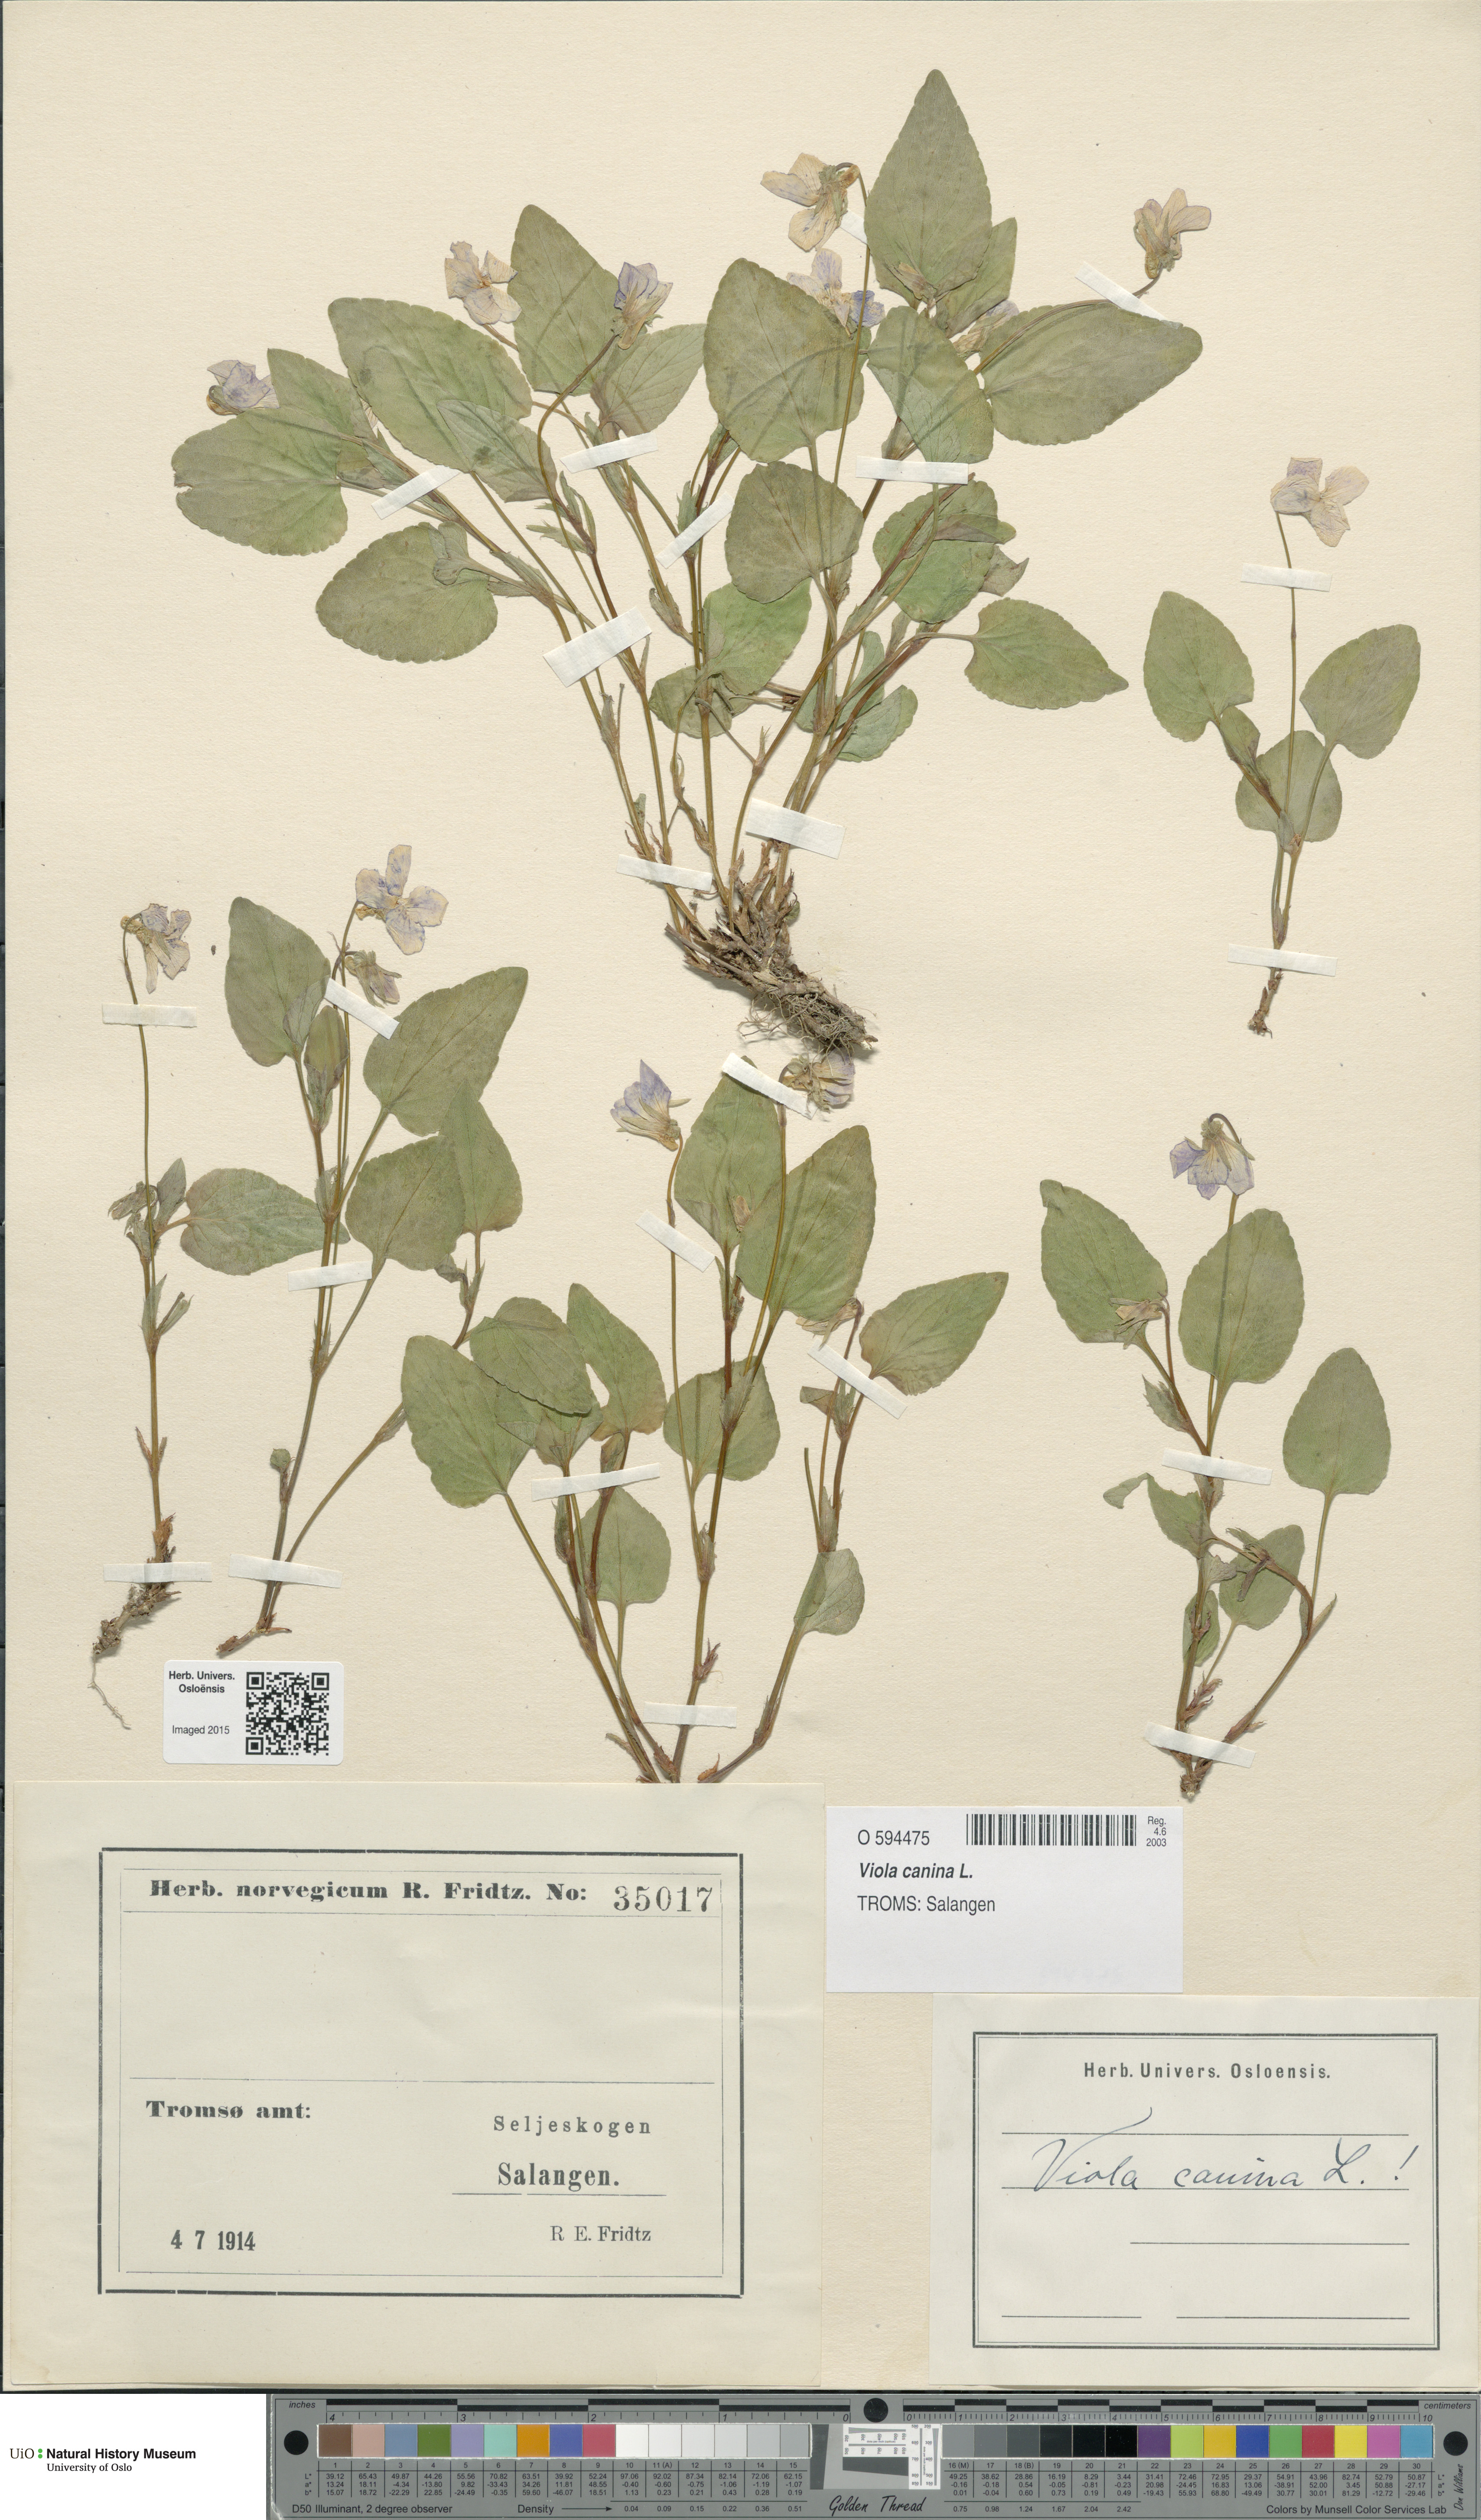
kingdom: Plantae
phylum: Tracheophyta
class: Magnoliopsida
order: Malpighiales
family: Violaceae
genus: Viola
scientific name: Viola canina
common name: Heath dog-violet
